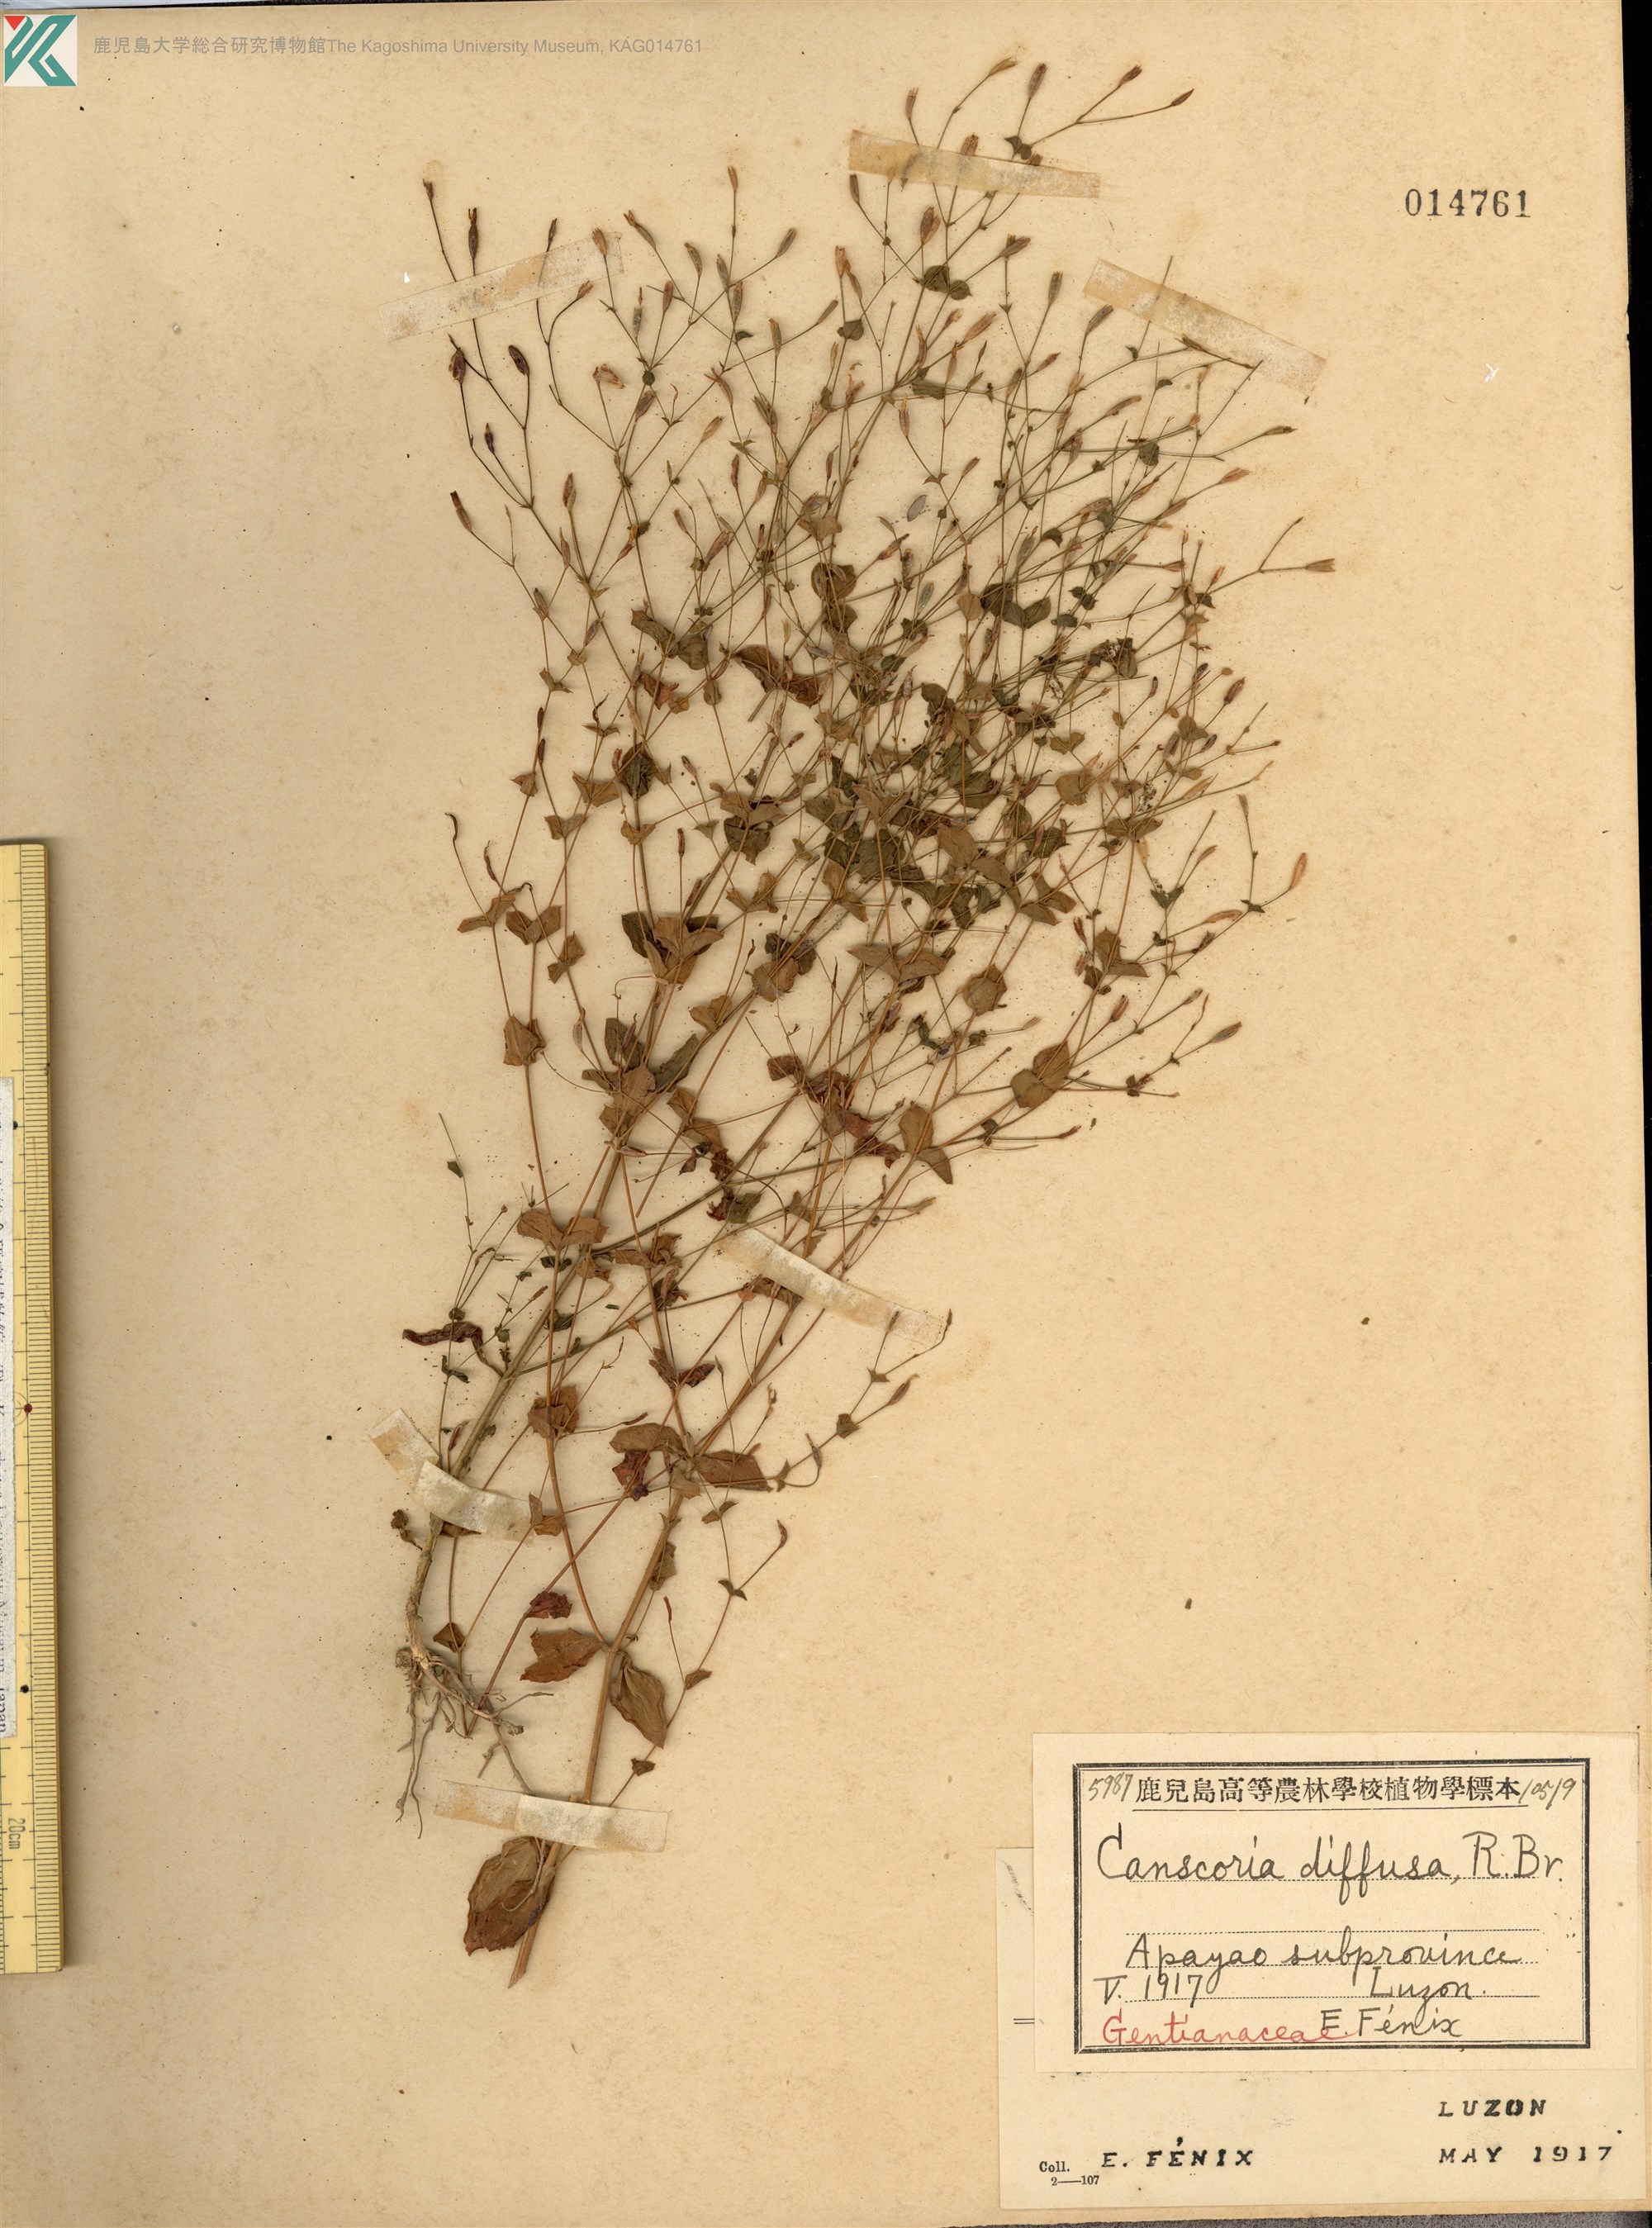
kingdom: Plantae
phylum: Tracheophyta
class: Magnoliopsida
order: Gentianales
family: Gentianaceae
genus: Canscora
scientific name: Canscora diffusa
